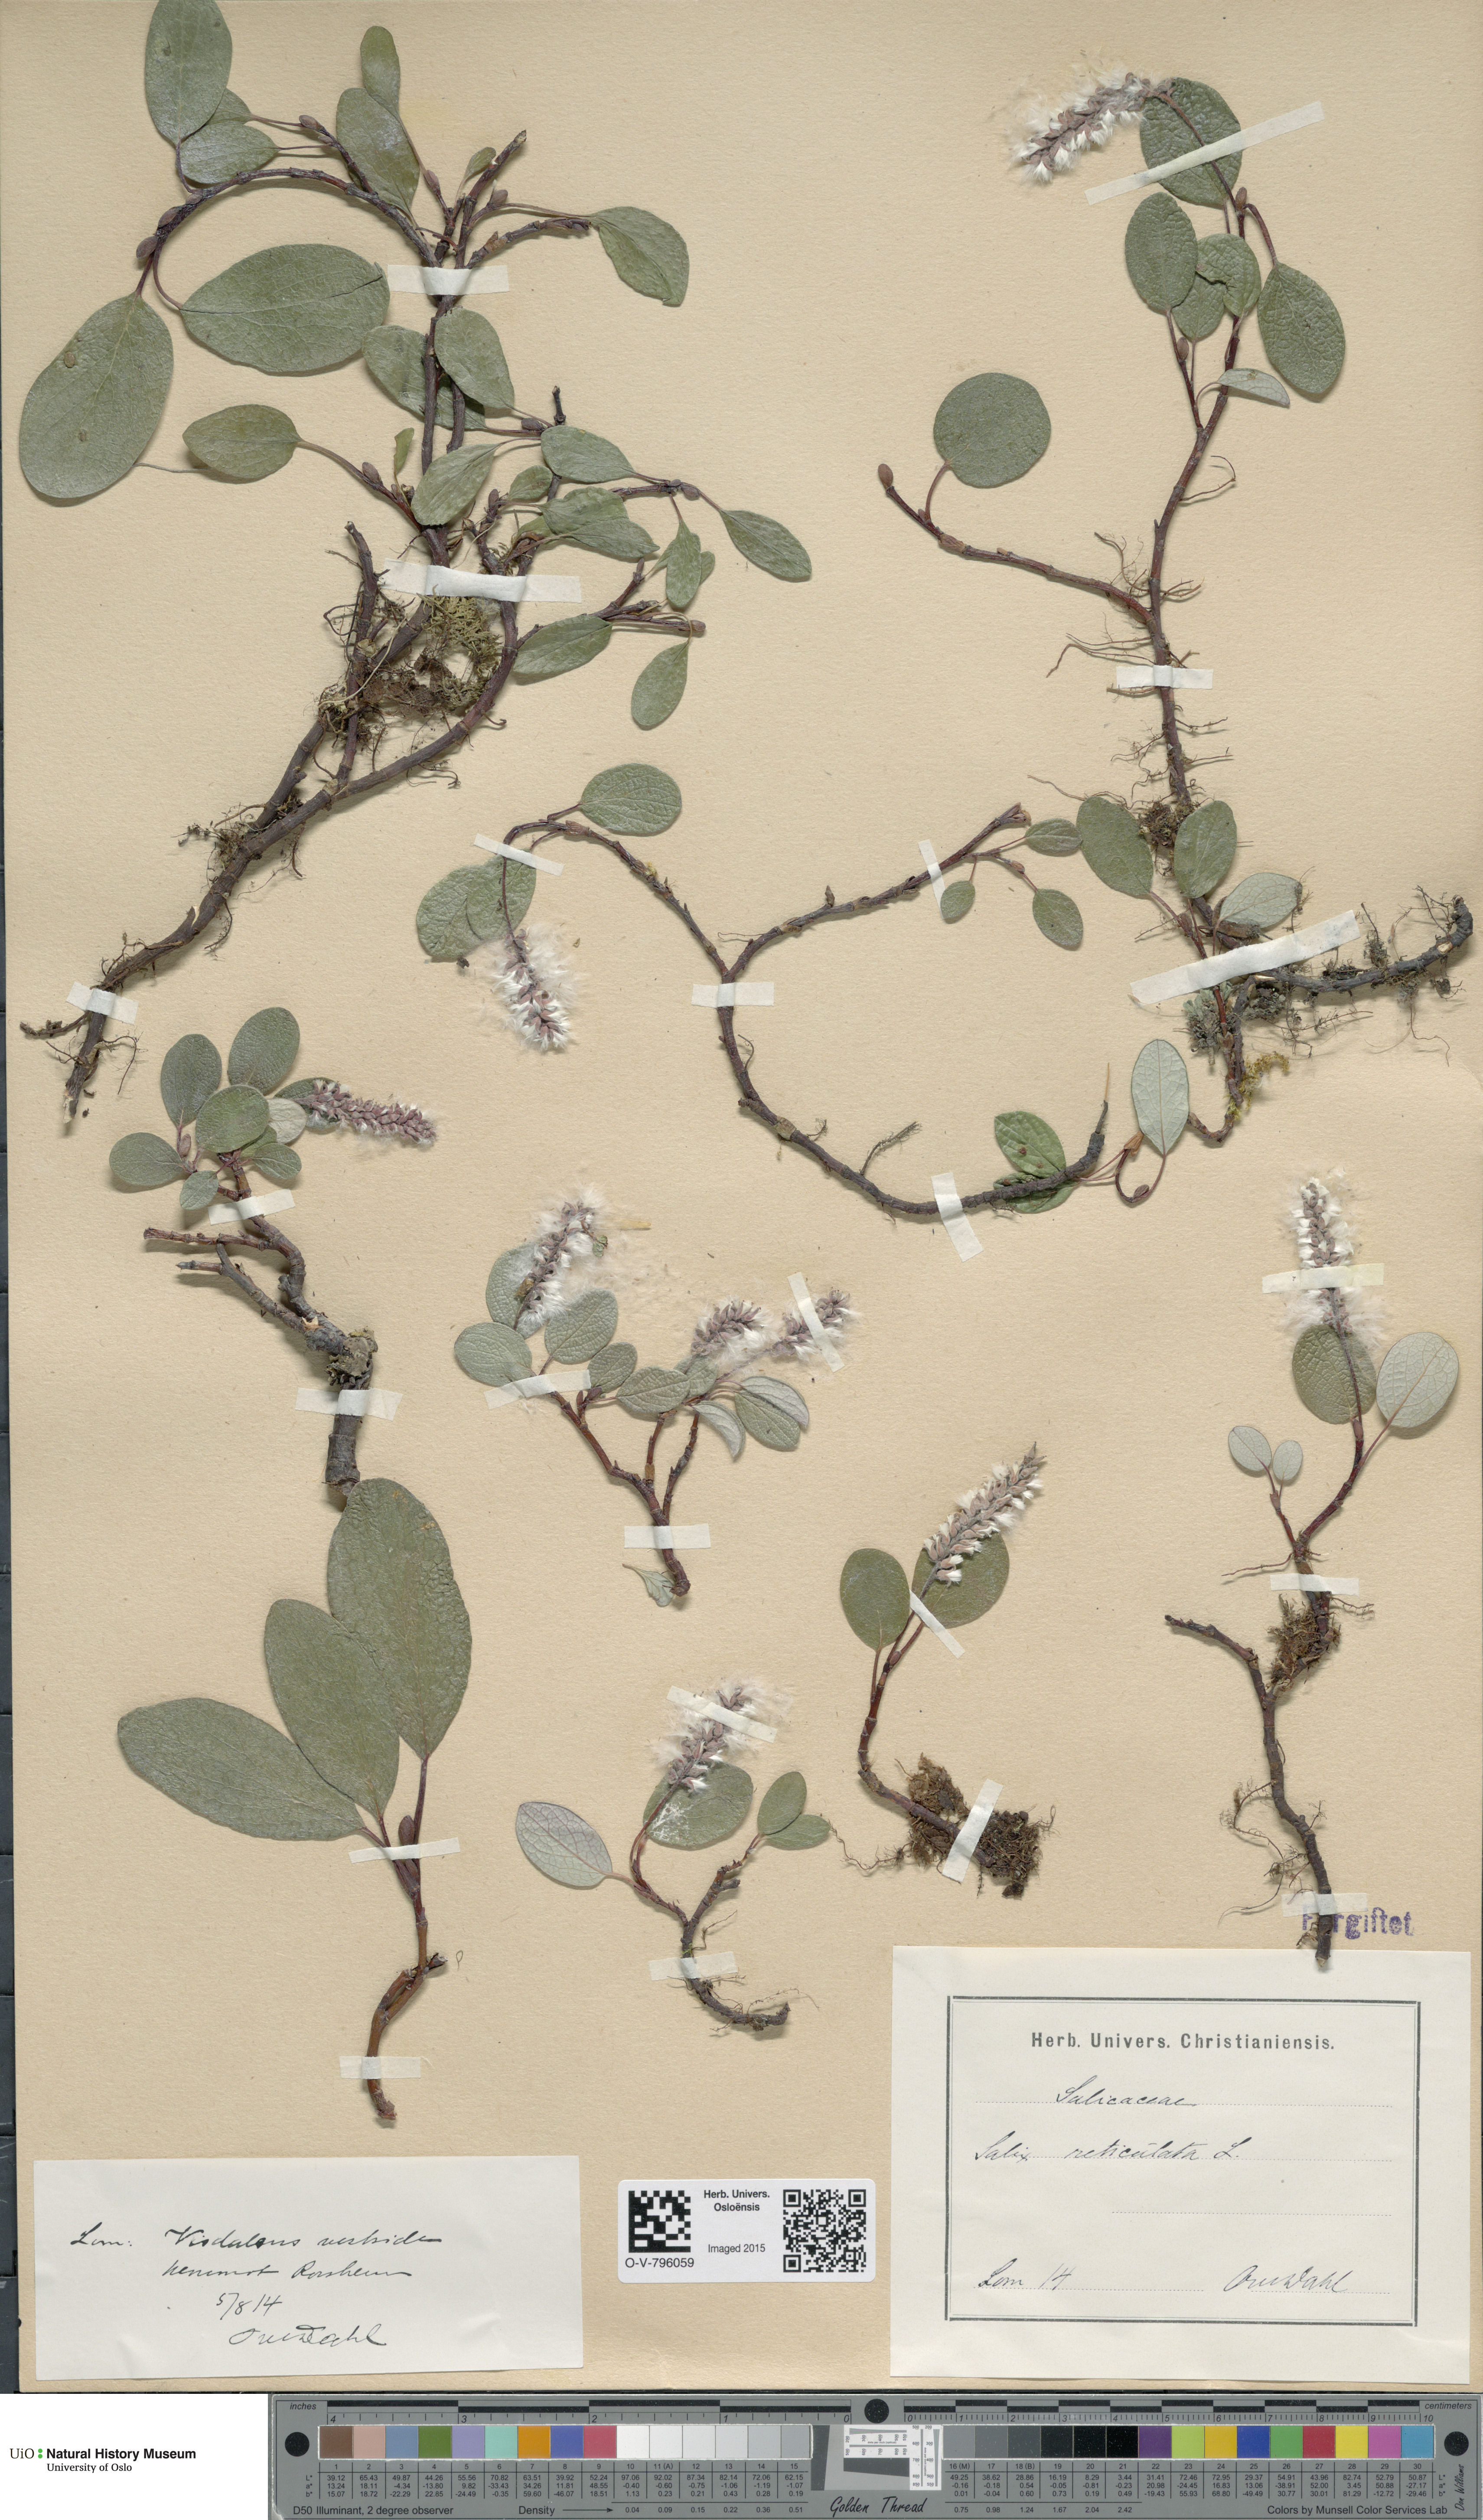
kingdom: Plantae
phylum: Tracheophyta
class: Magnoliopsida
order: Malpighiales
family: Salicaceae
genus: Salix
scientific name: Salix reticulata
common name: Net-leaved willow
